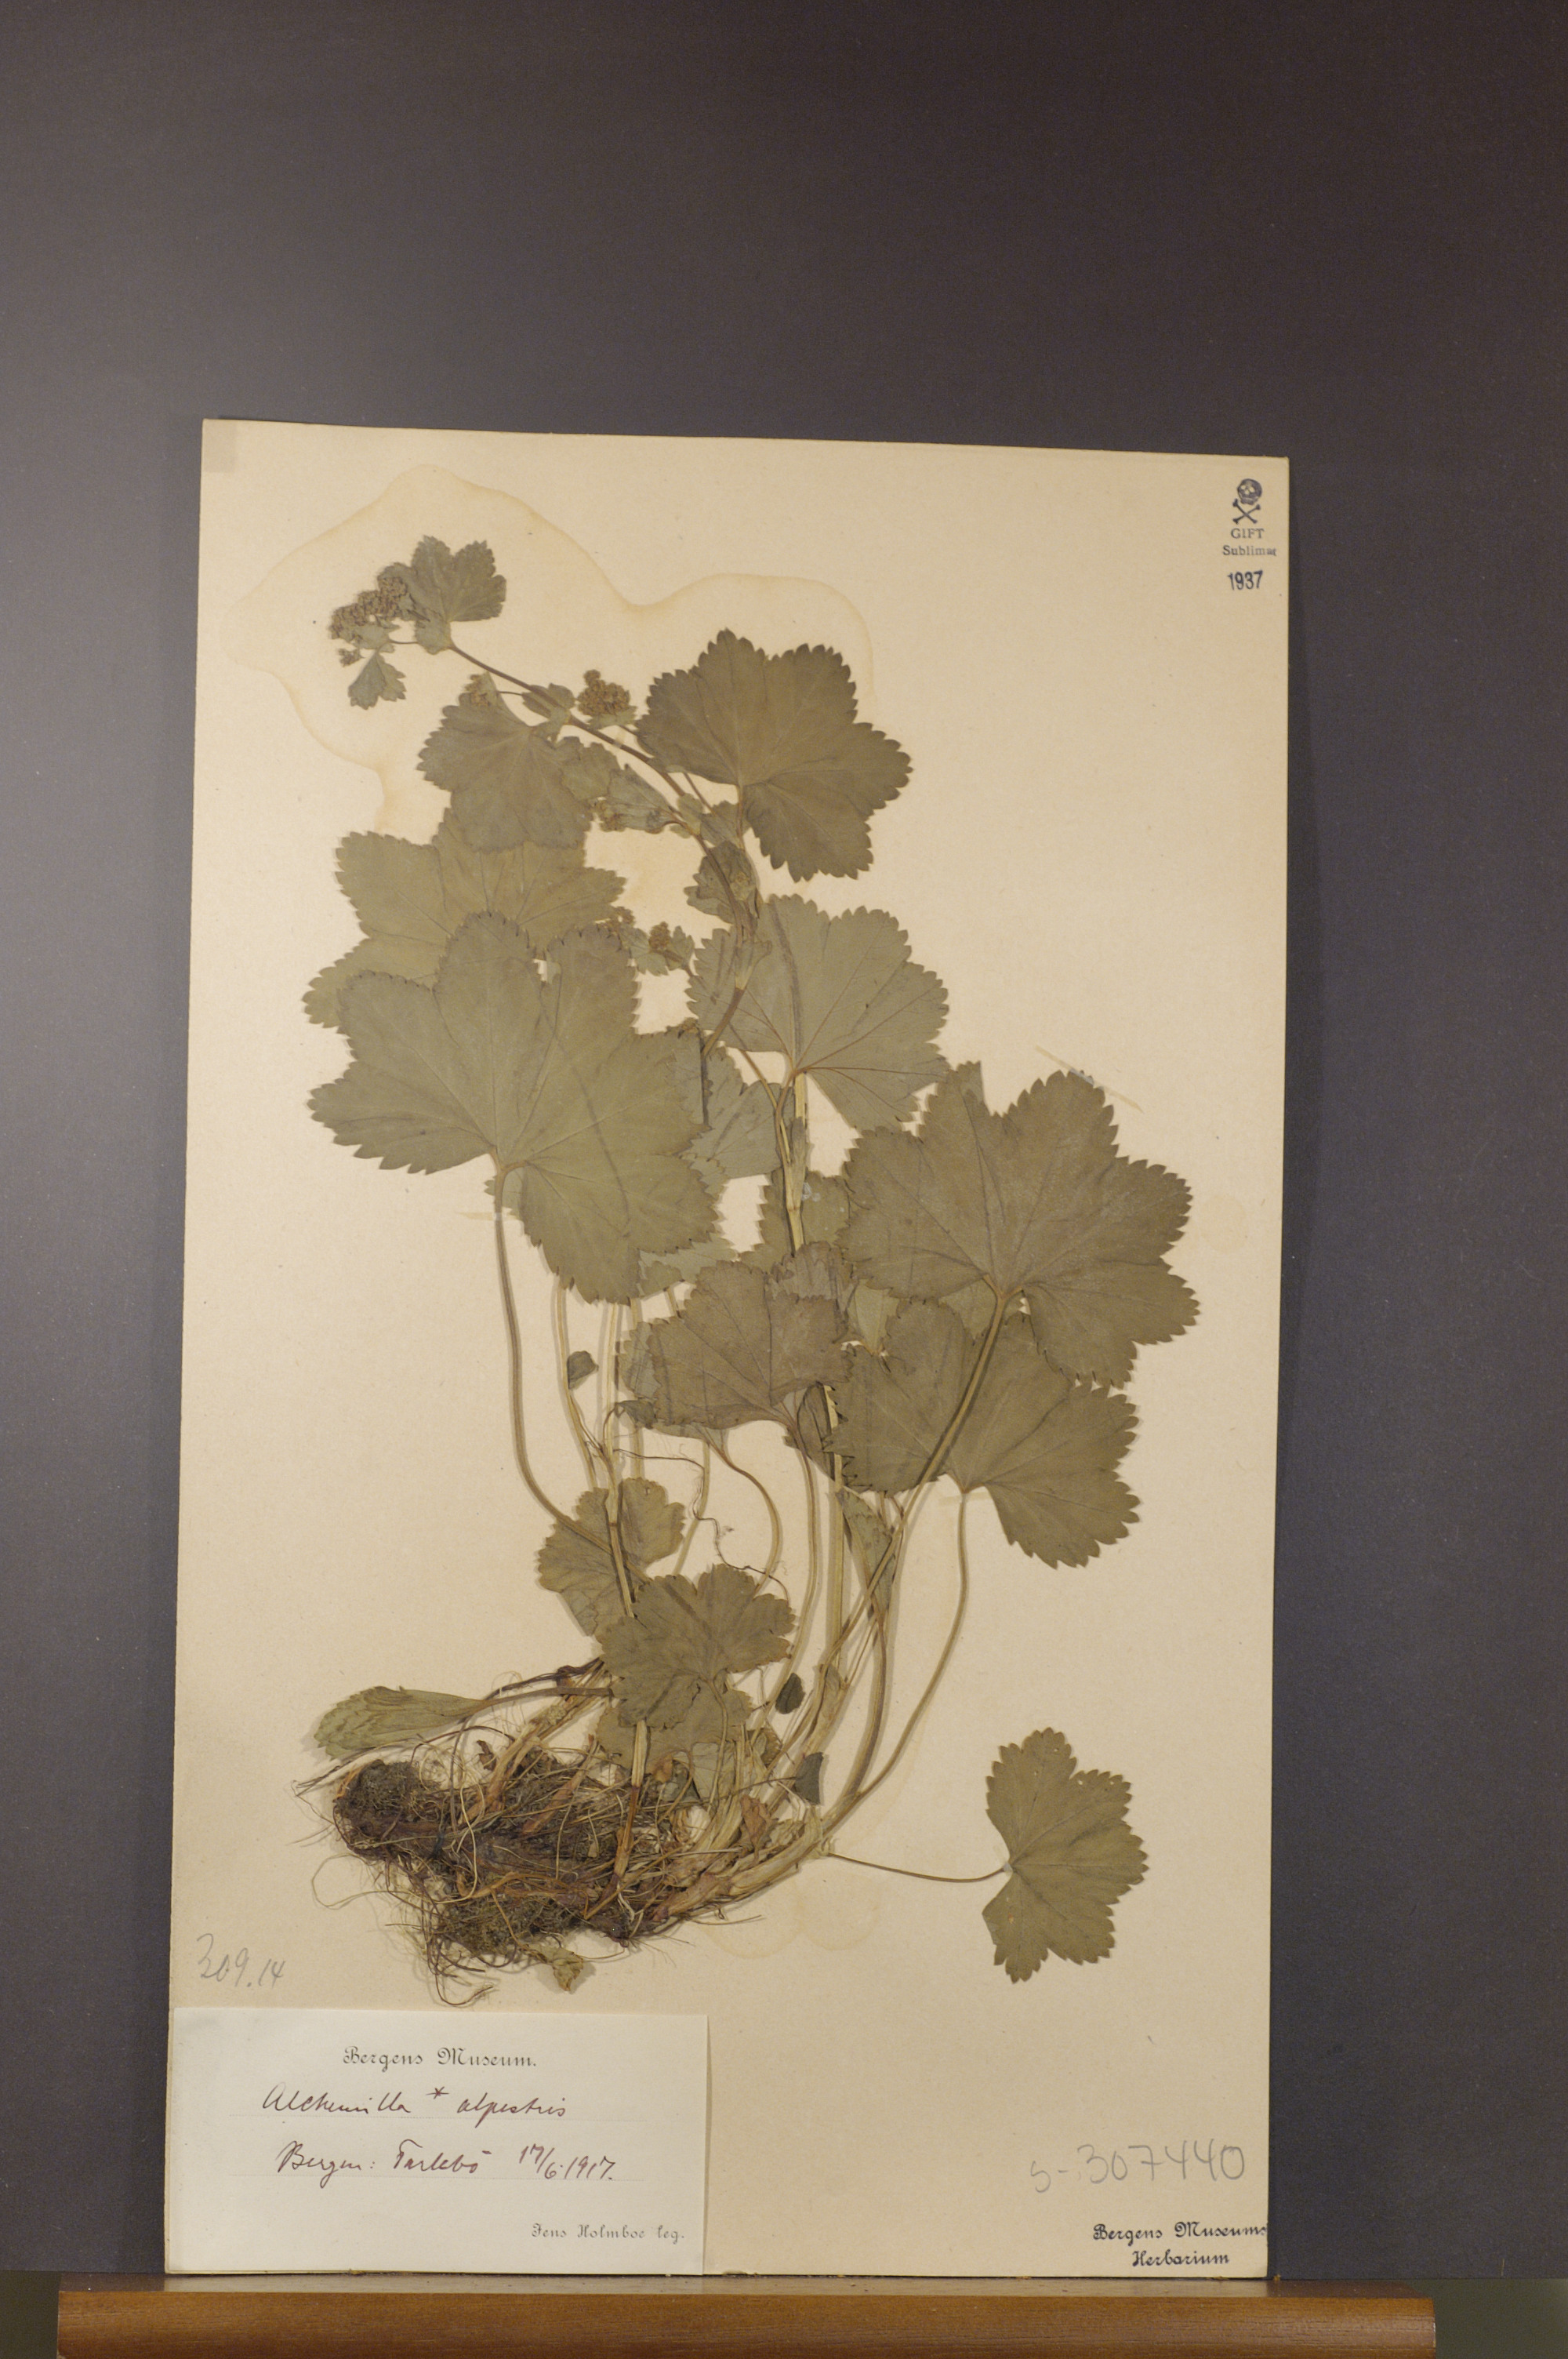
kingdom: Plantae
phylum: Tracheophyta
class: Magnoliopsida
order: Rosales
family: Rosaceae
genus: Alchemilla
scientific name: Alchemilla glabra
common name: Smooth lady's-mantle
